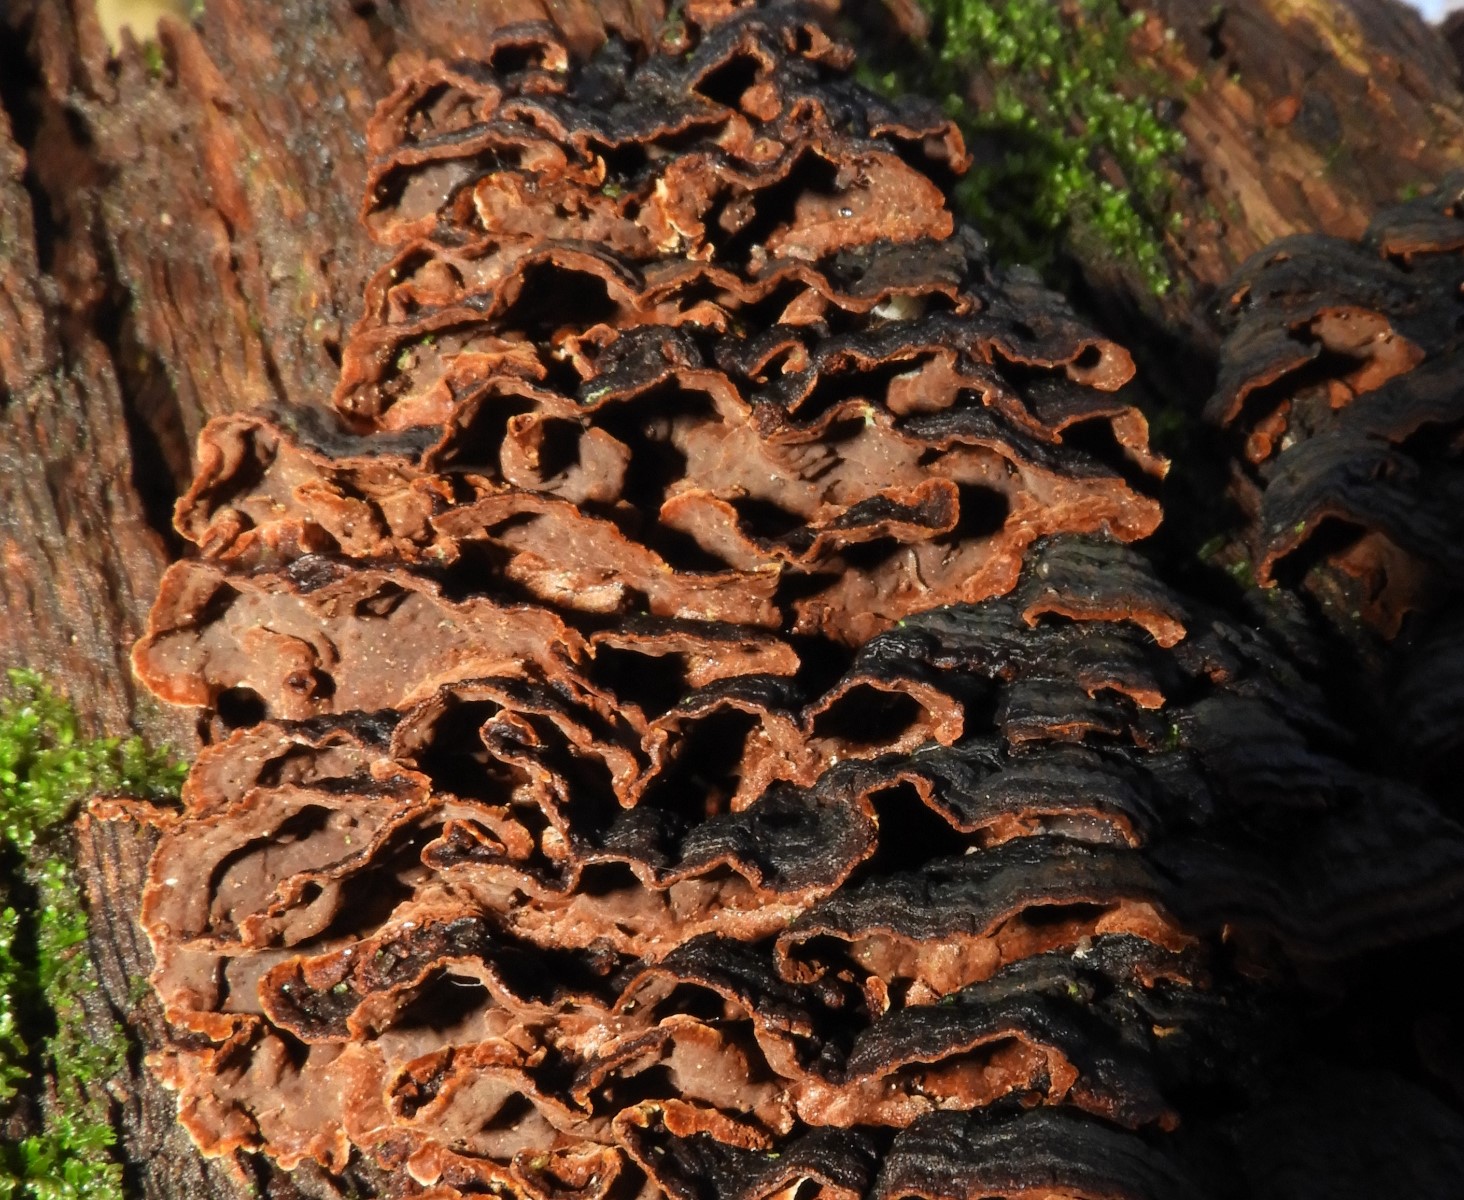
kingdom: Fungi
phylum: Basidiomycota
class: Agaricomycetes
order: Hymenochaetales
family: Hymenochaetaceae
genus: Hymenochaete
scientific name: Hymenochaete rubiginosa
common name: stiv ruslædersvamp
